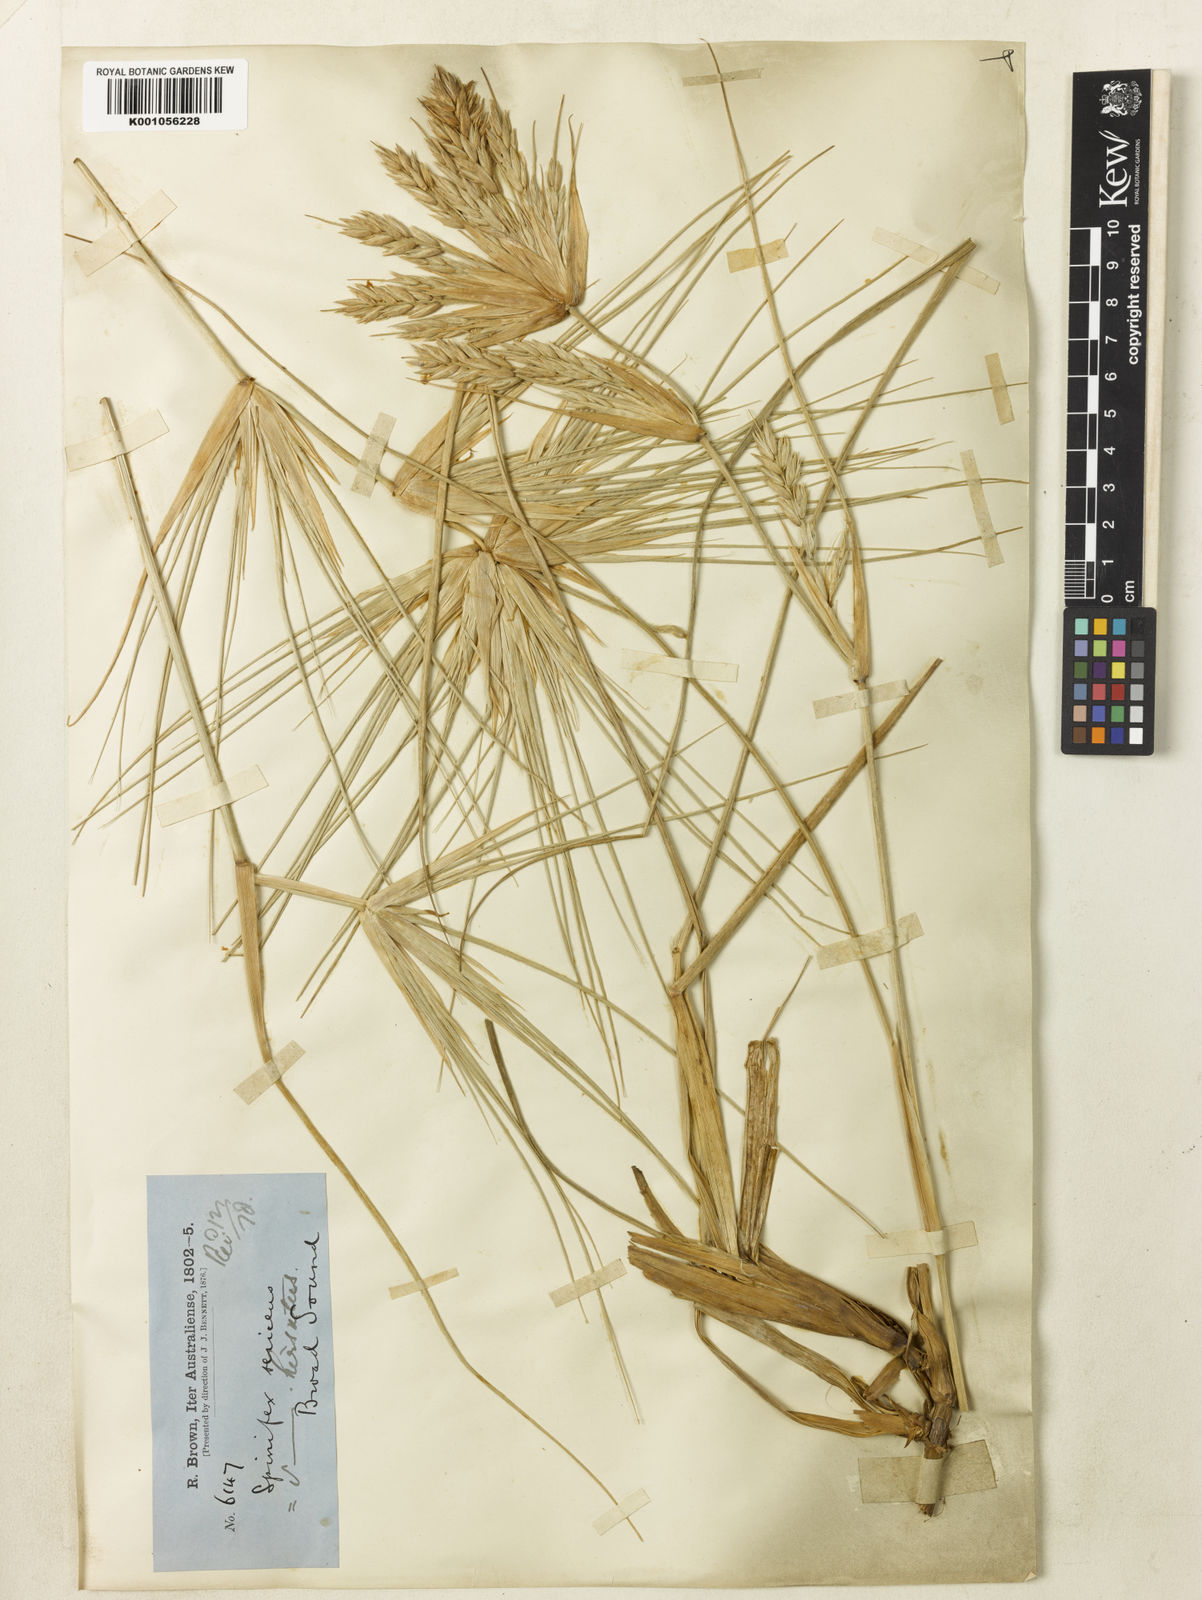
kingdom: Plantae
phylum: Tracheophyta
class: Liliopsida
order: Poales
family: Poaceae
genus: Spinifex
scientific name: Spinifex sericeus
